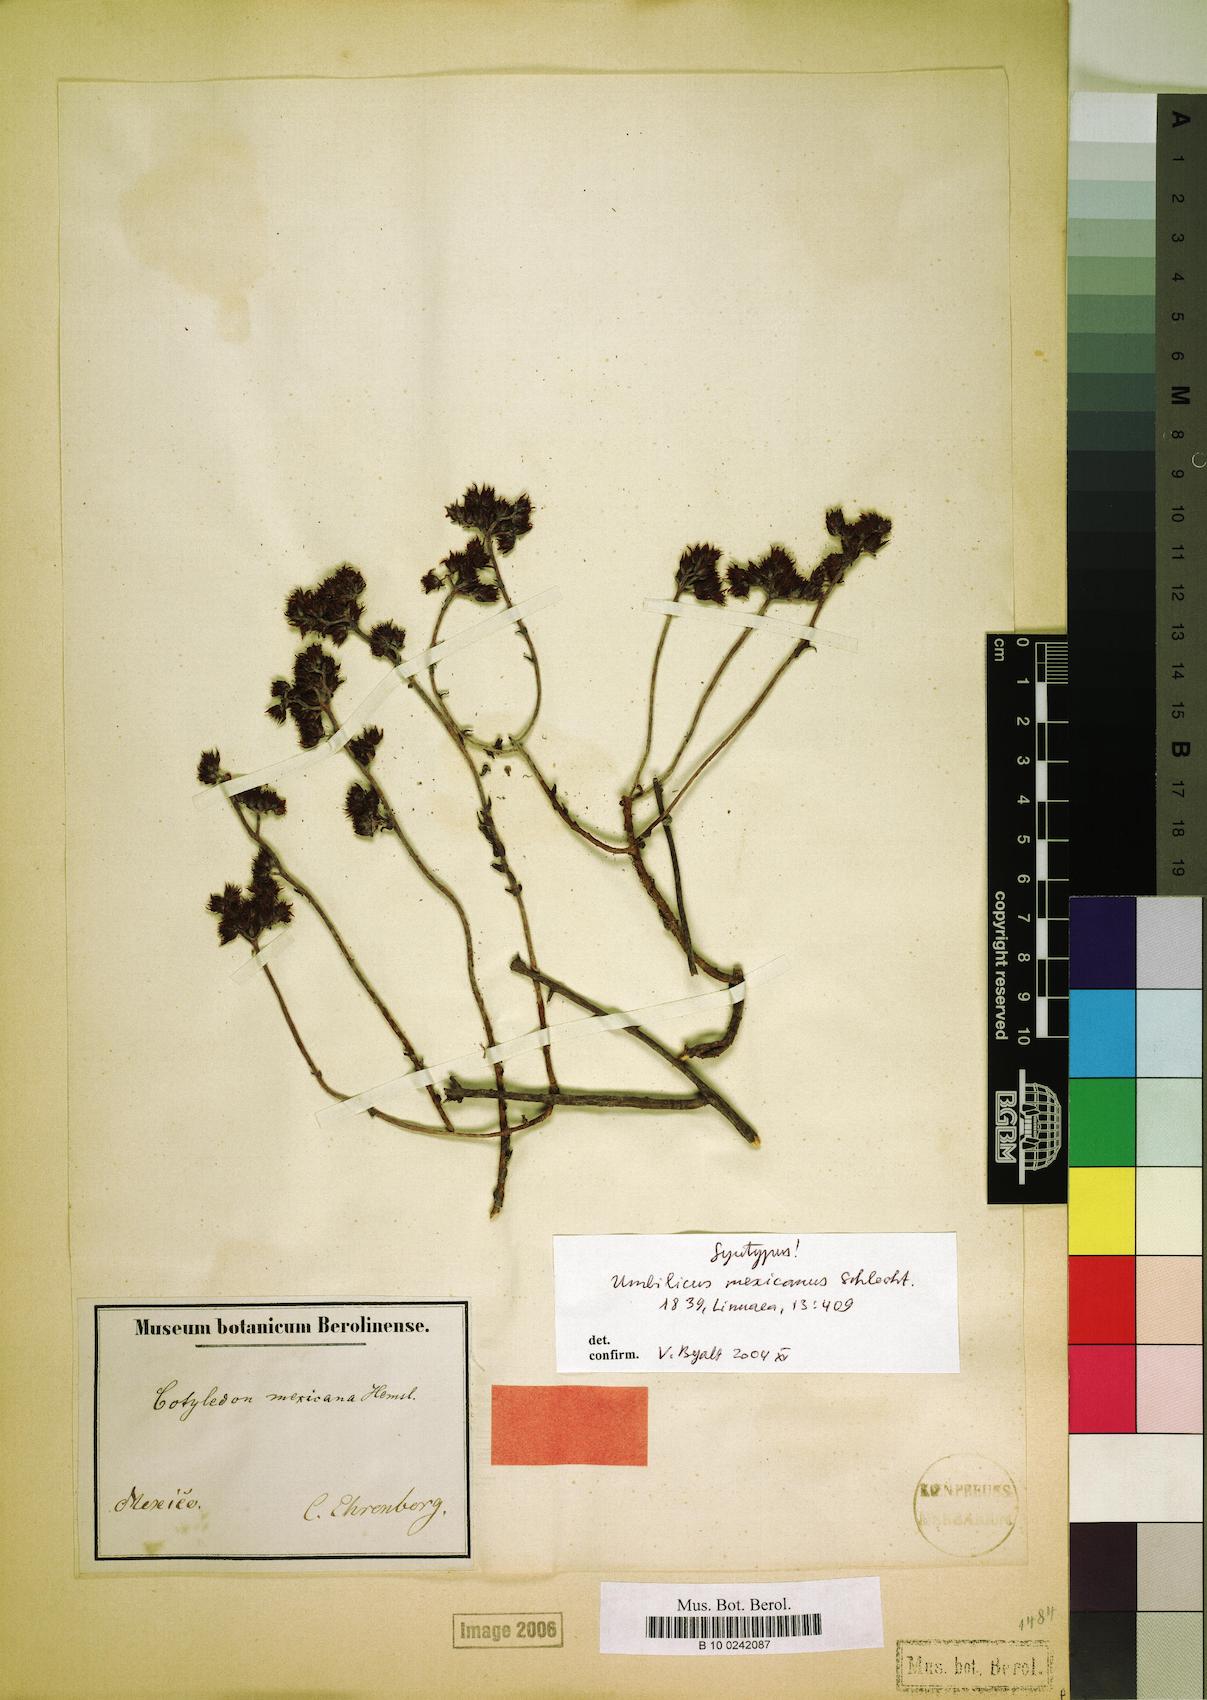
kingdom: Plantae
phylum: Tracheophyta
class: Magnoliopsida
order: Saxifragales
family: Crassulaceae
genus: Sedum
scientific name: Sedum goldmanii
